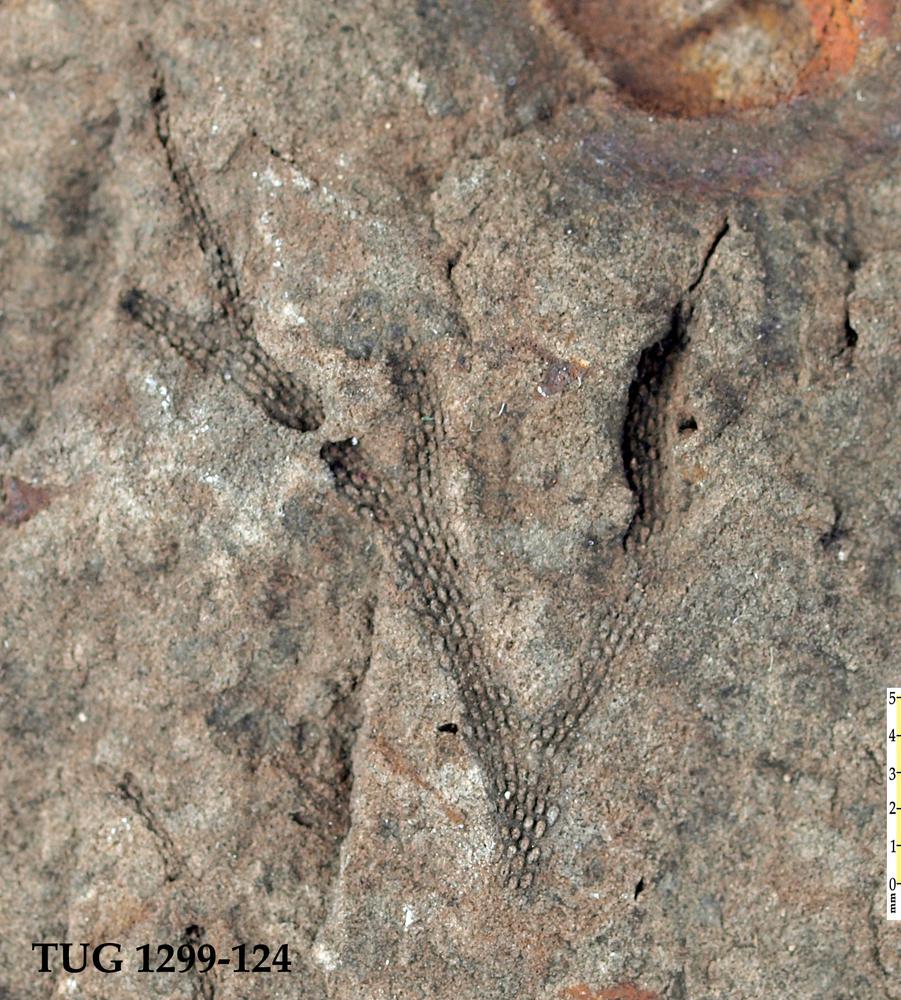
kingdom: Animalia
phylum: Bryozoa
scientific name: Bryozoa
